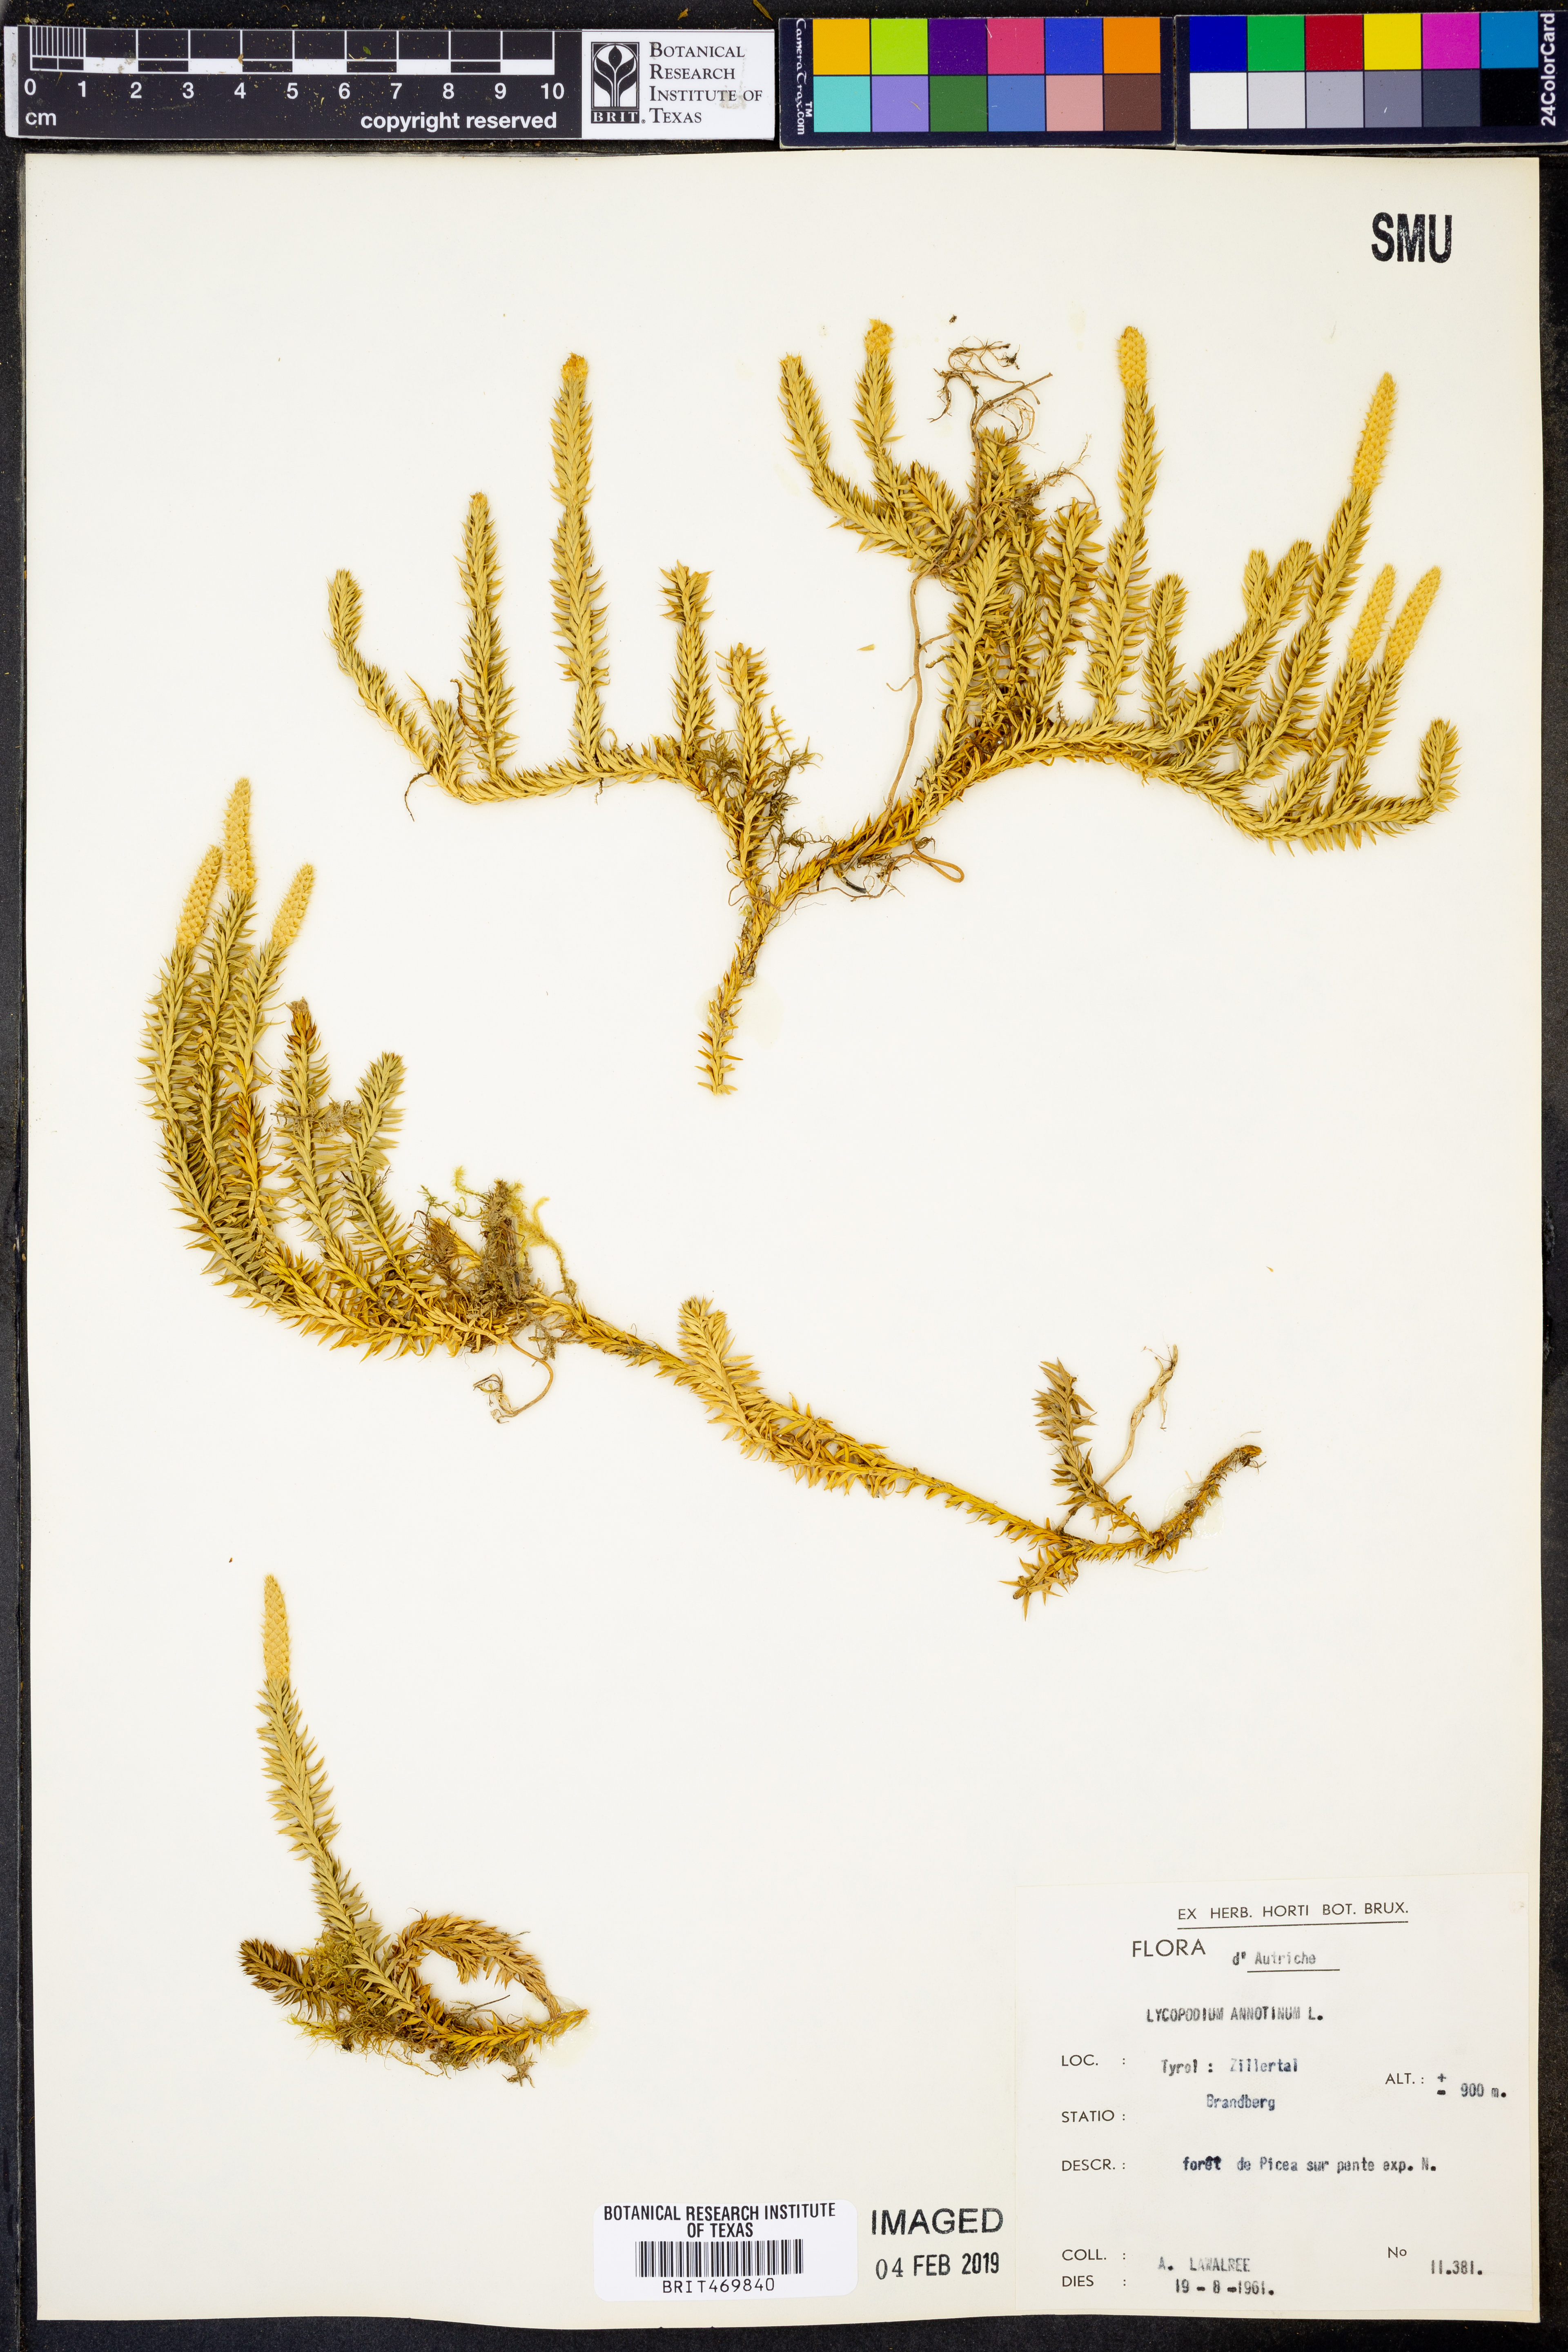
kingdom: Plantae
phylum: Tracheophyta
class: Lycopodiopsida
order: Lycopodiales
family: Lycopodiaceae
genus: Spinulum
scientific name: Spinulum annotinum
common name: Interrupted club-moss
